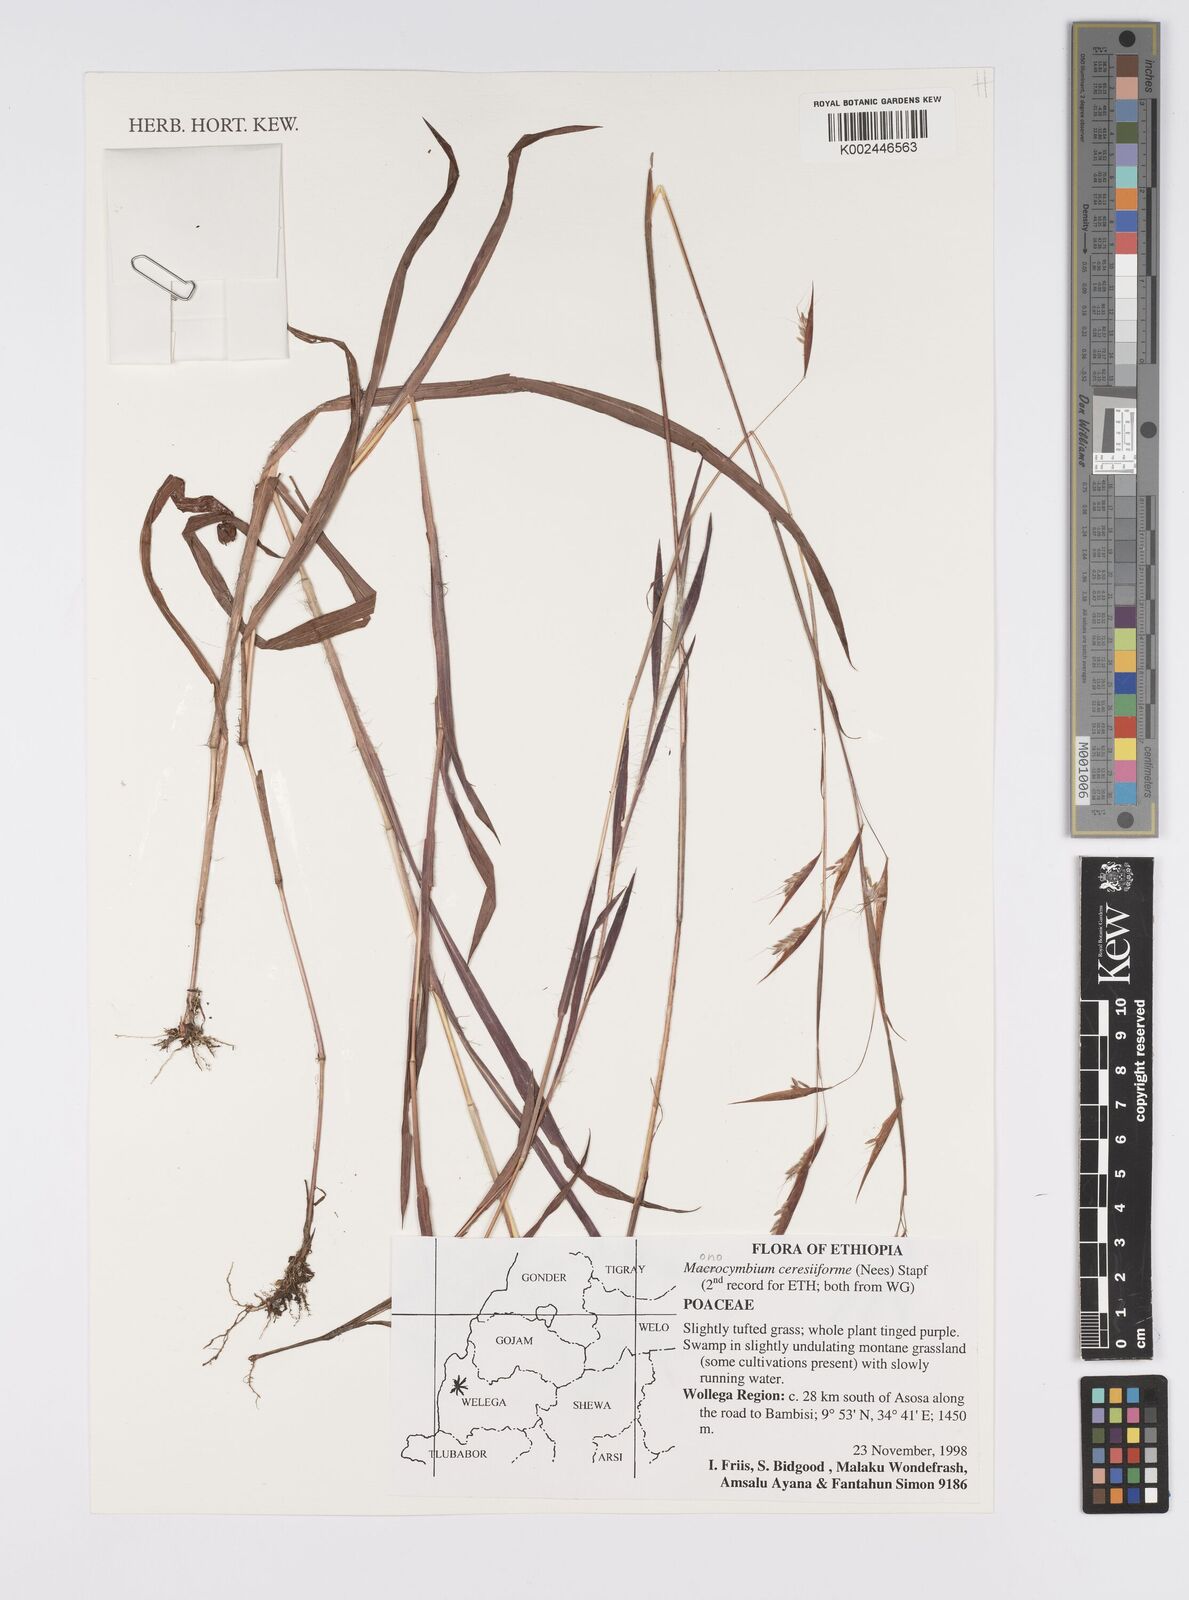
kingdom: Plantae
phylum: Tracheophyta
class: Liliopsida
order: Poales
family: Poaceae
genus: Monocymbium
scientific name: Monocymbium ceresiiforme
